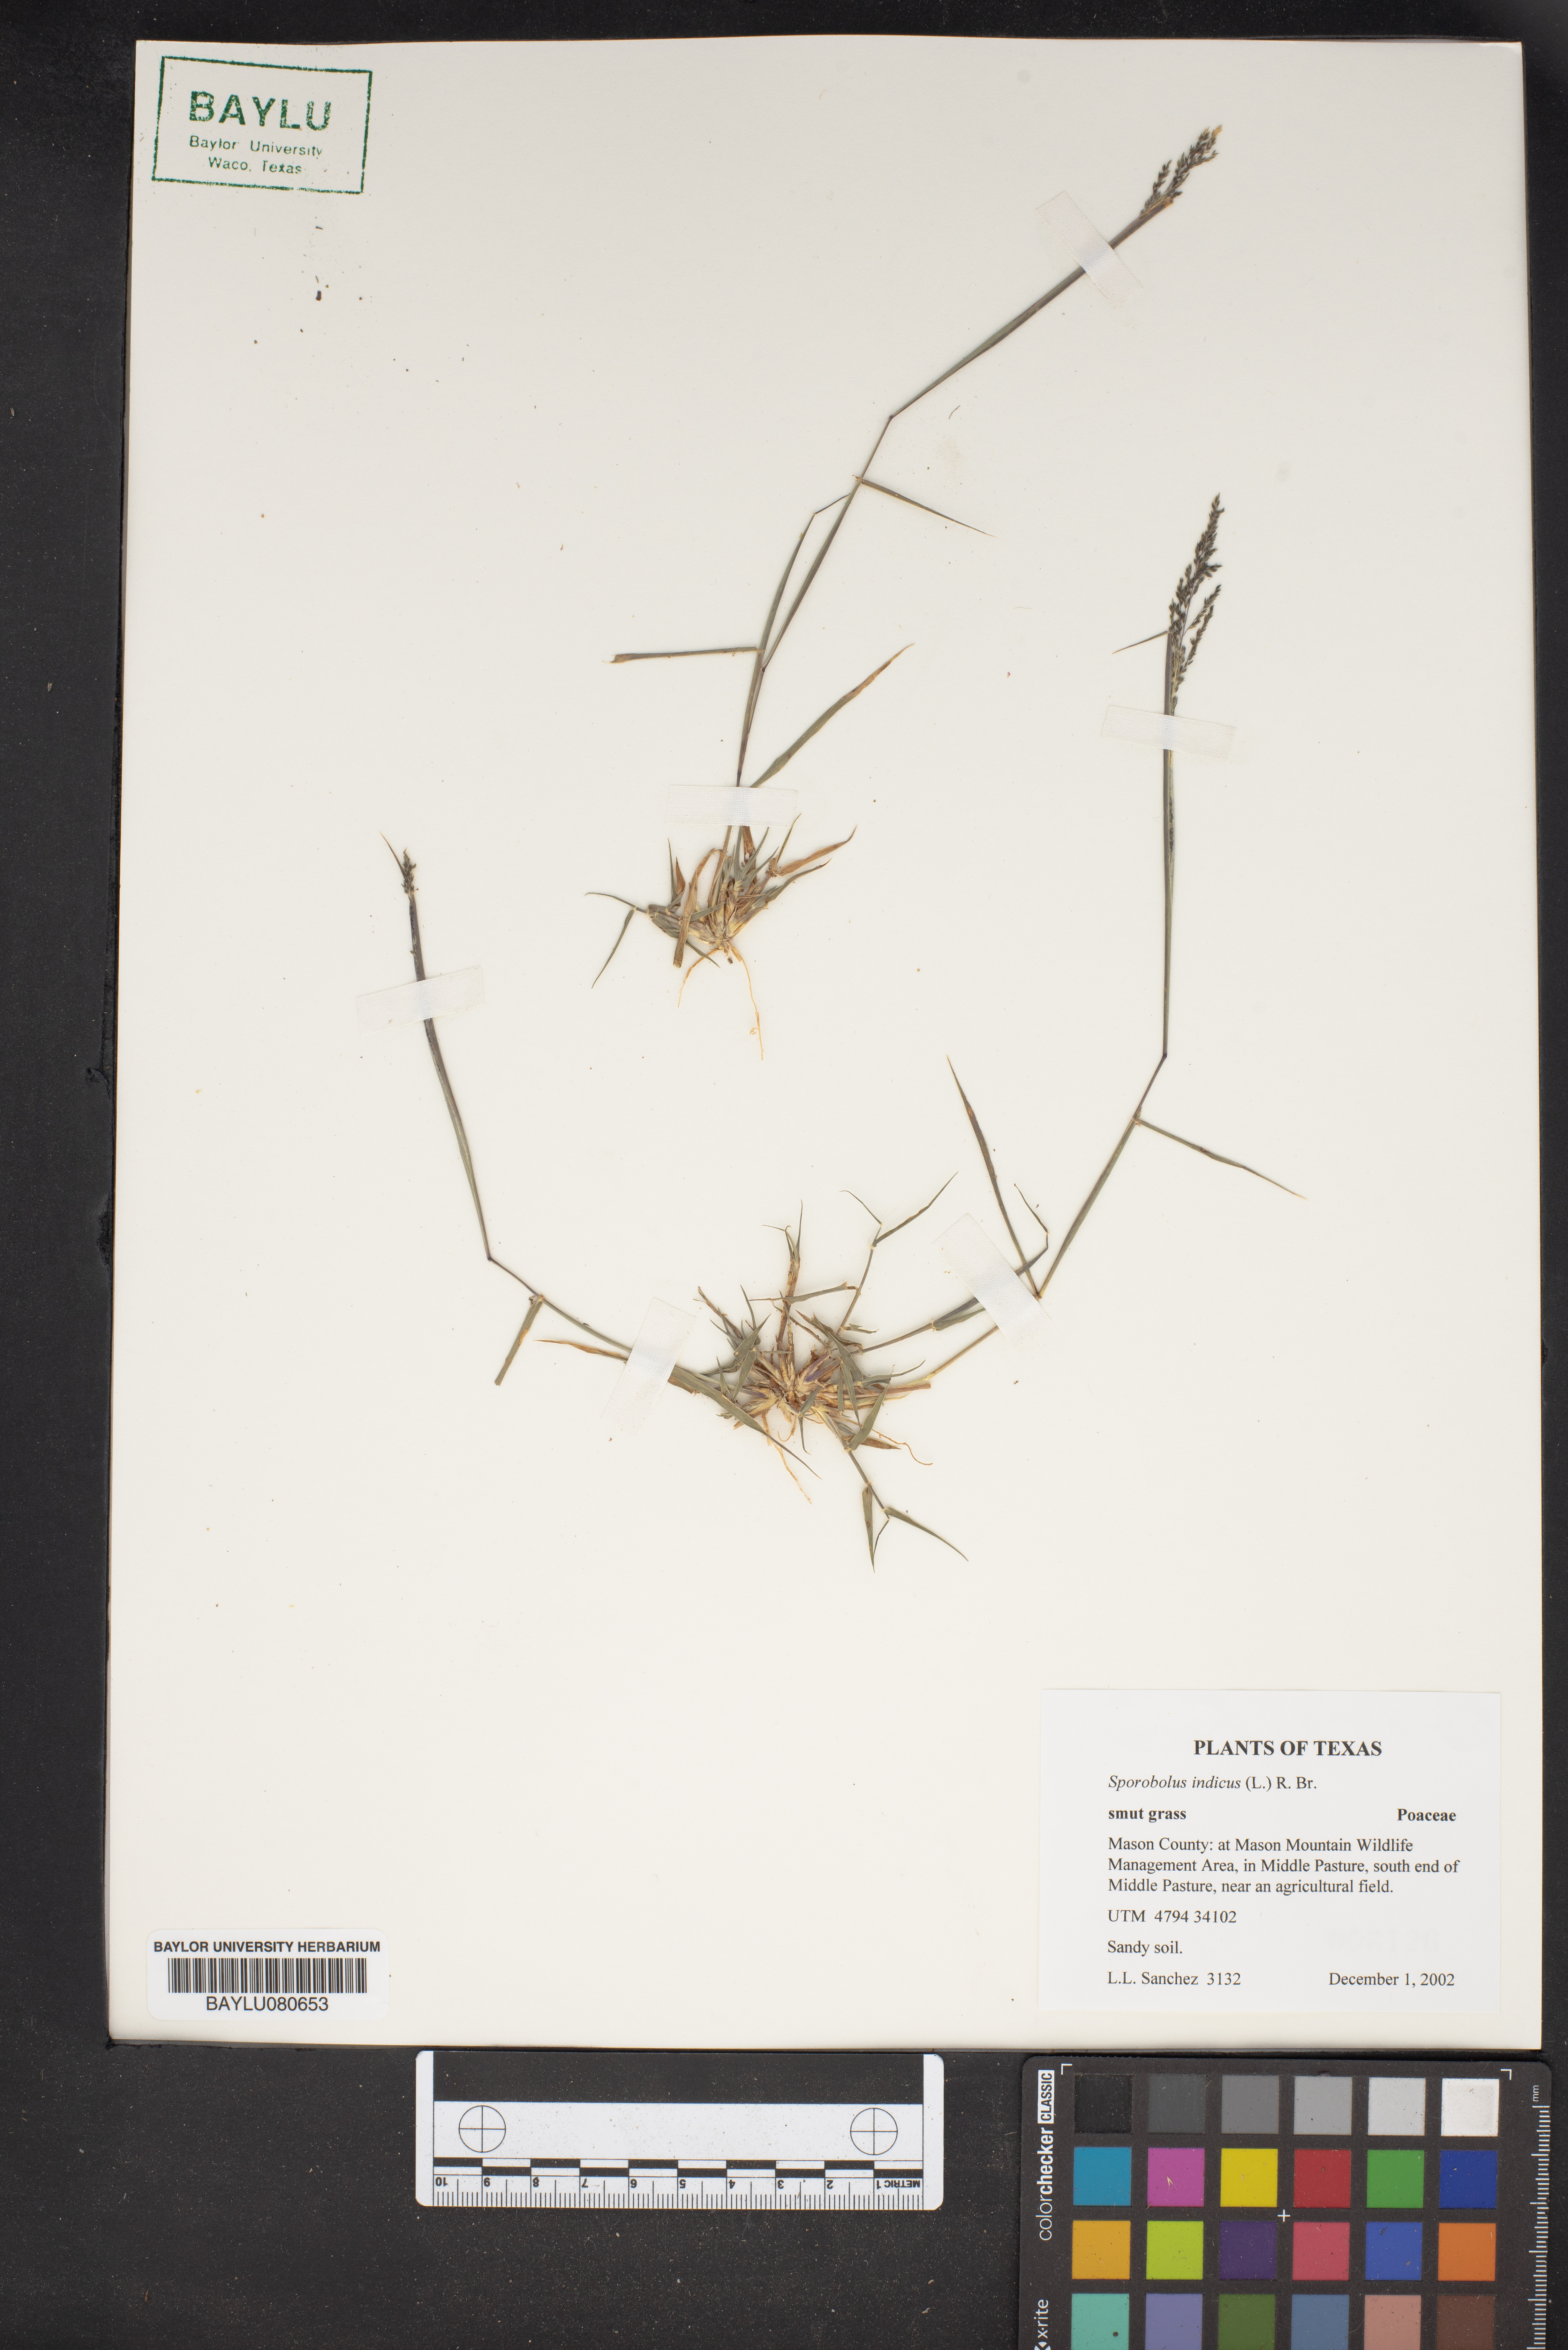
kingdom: Plantae
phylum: Tracheophyta
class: Liliopsida
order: Poales
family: Poaceae
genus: Sporobolus
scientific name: Sporobolus indicus
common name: Smut grass
